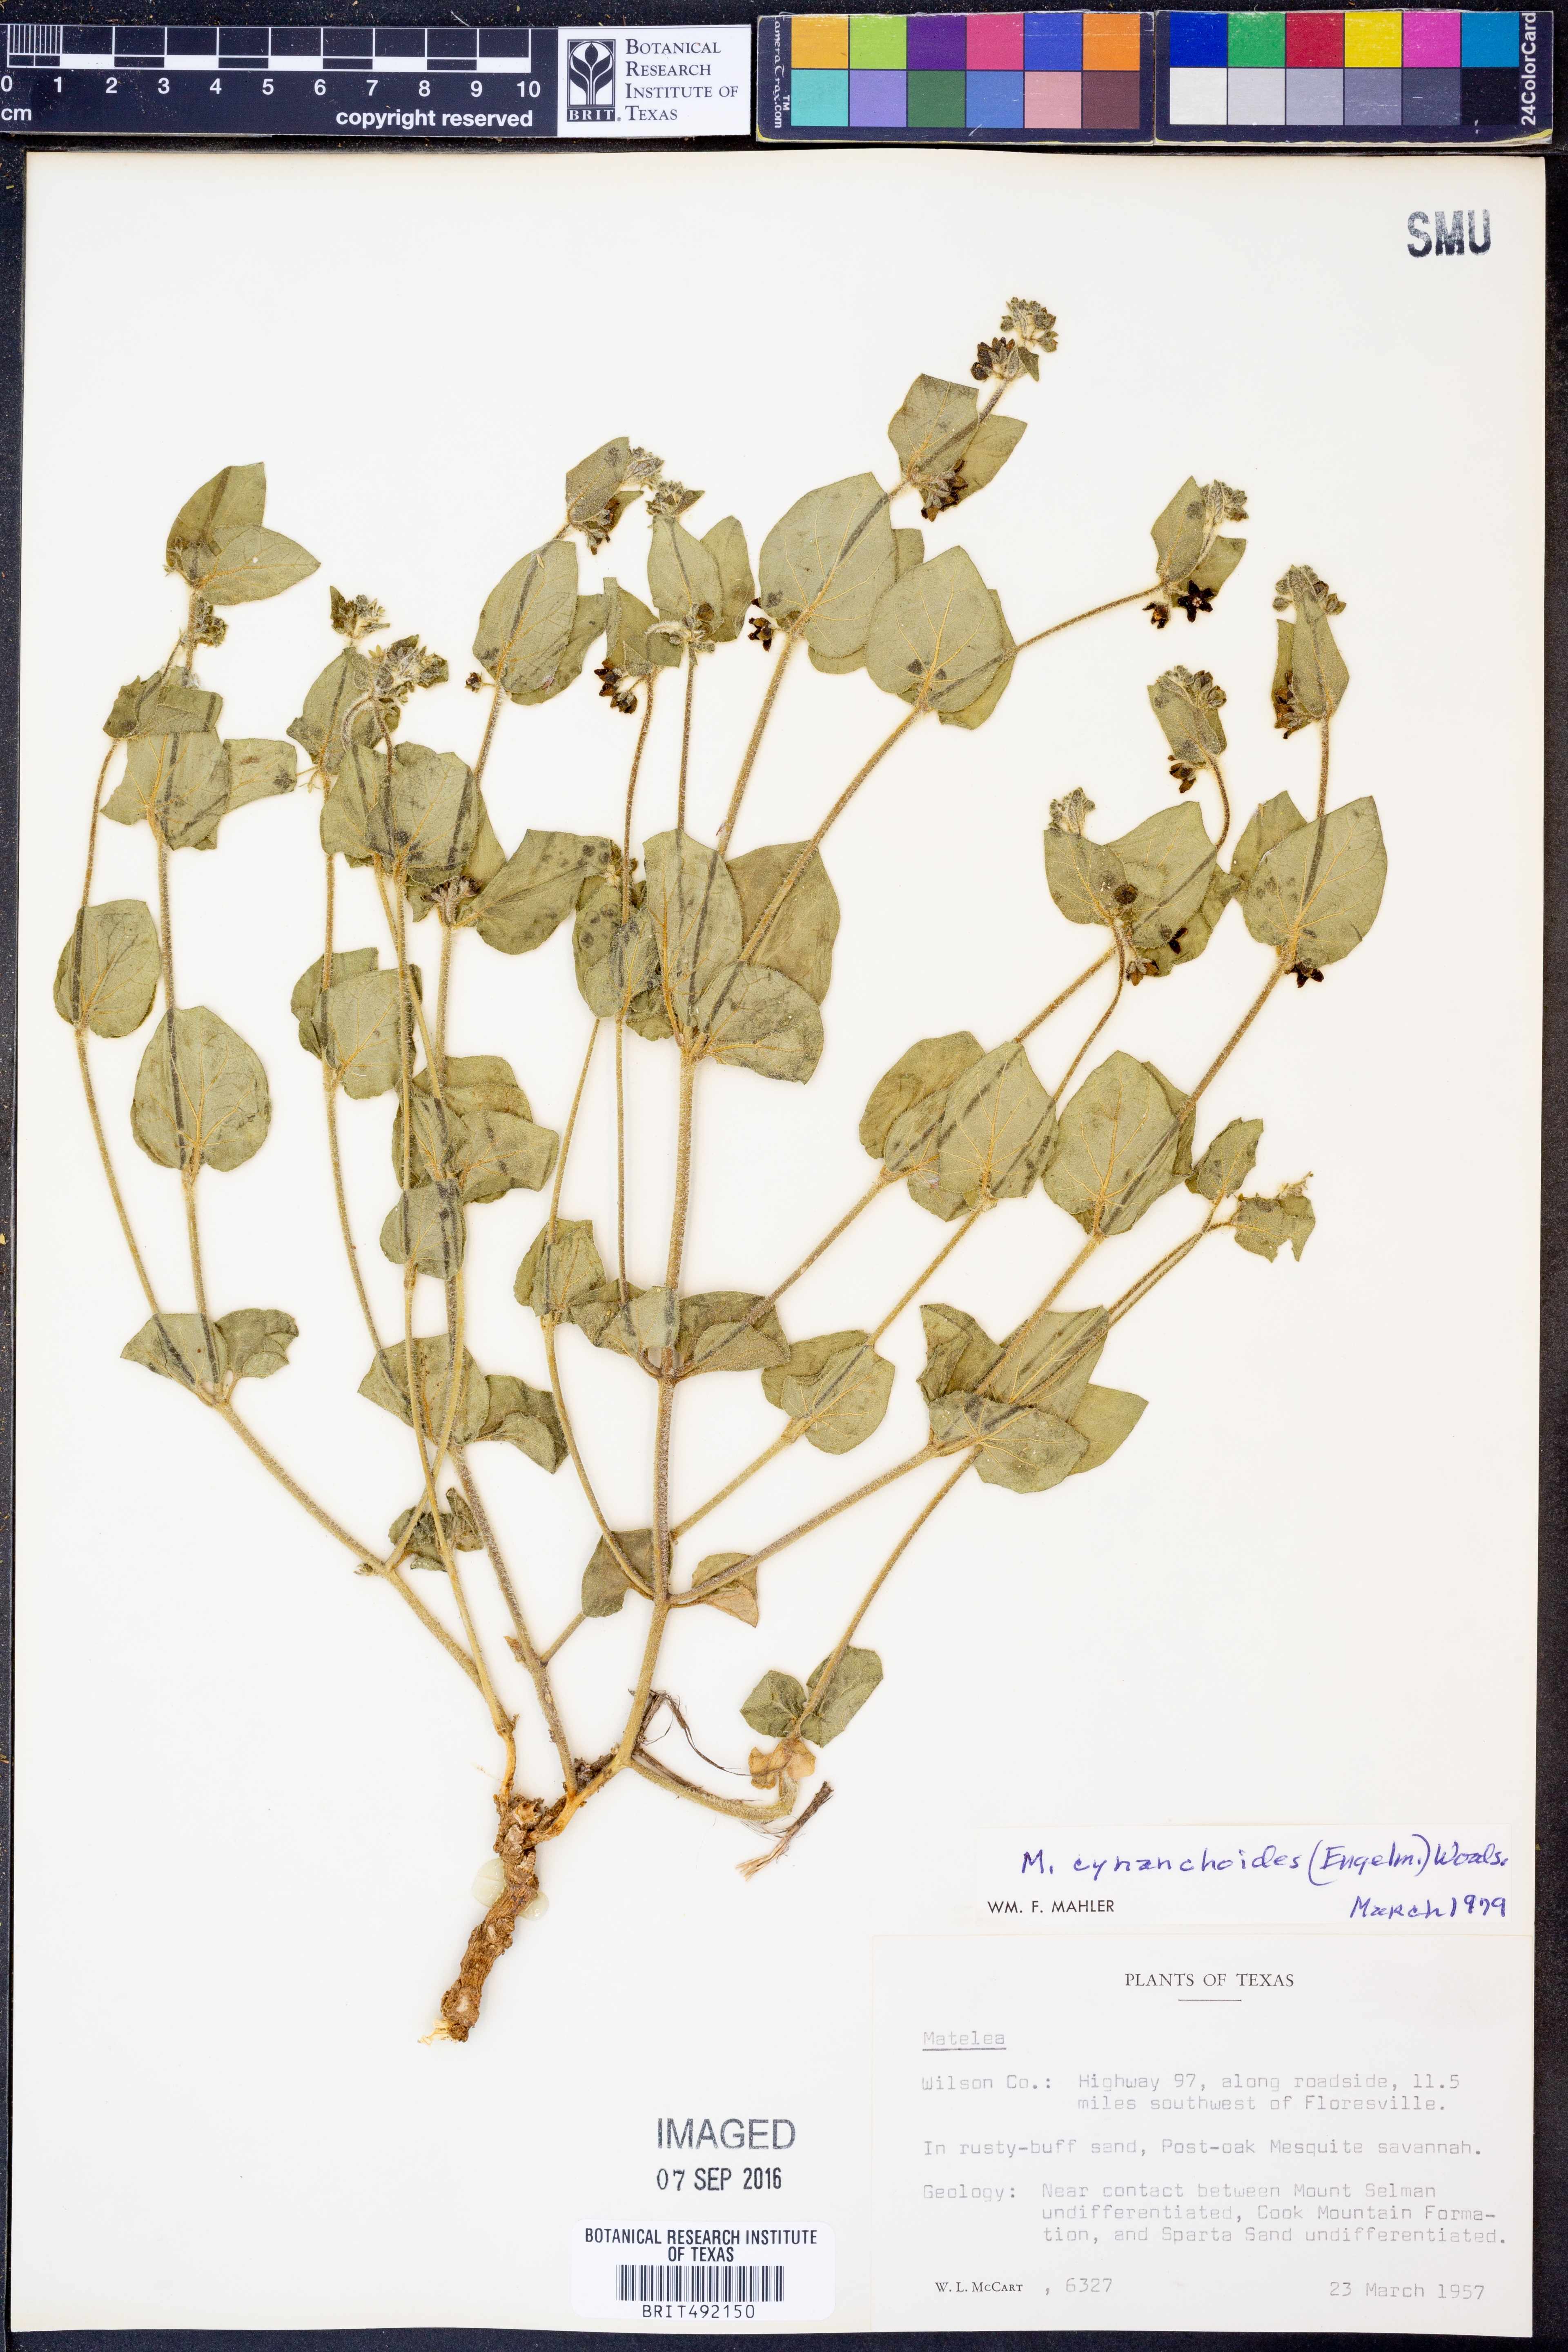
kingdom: Plantae
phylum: Tracheophyta
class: Magnoliopsida
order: Gentianales
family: Apocynaceae
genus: Matelea
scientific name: Matelea cynanchoides
